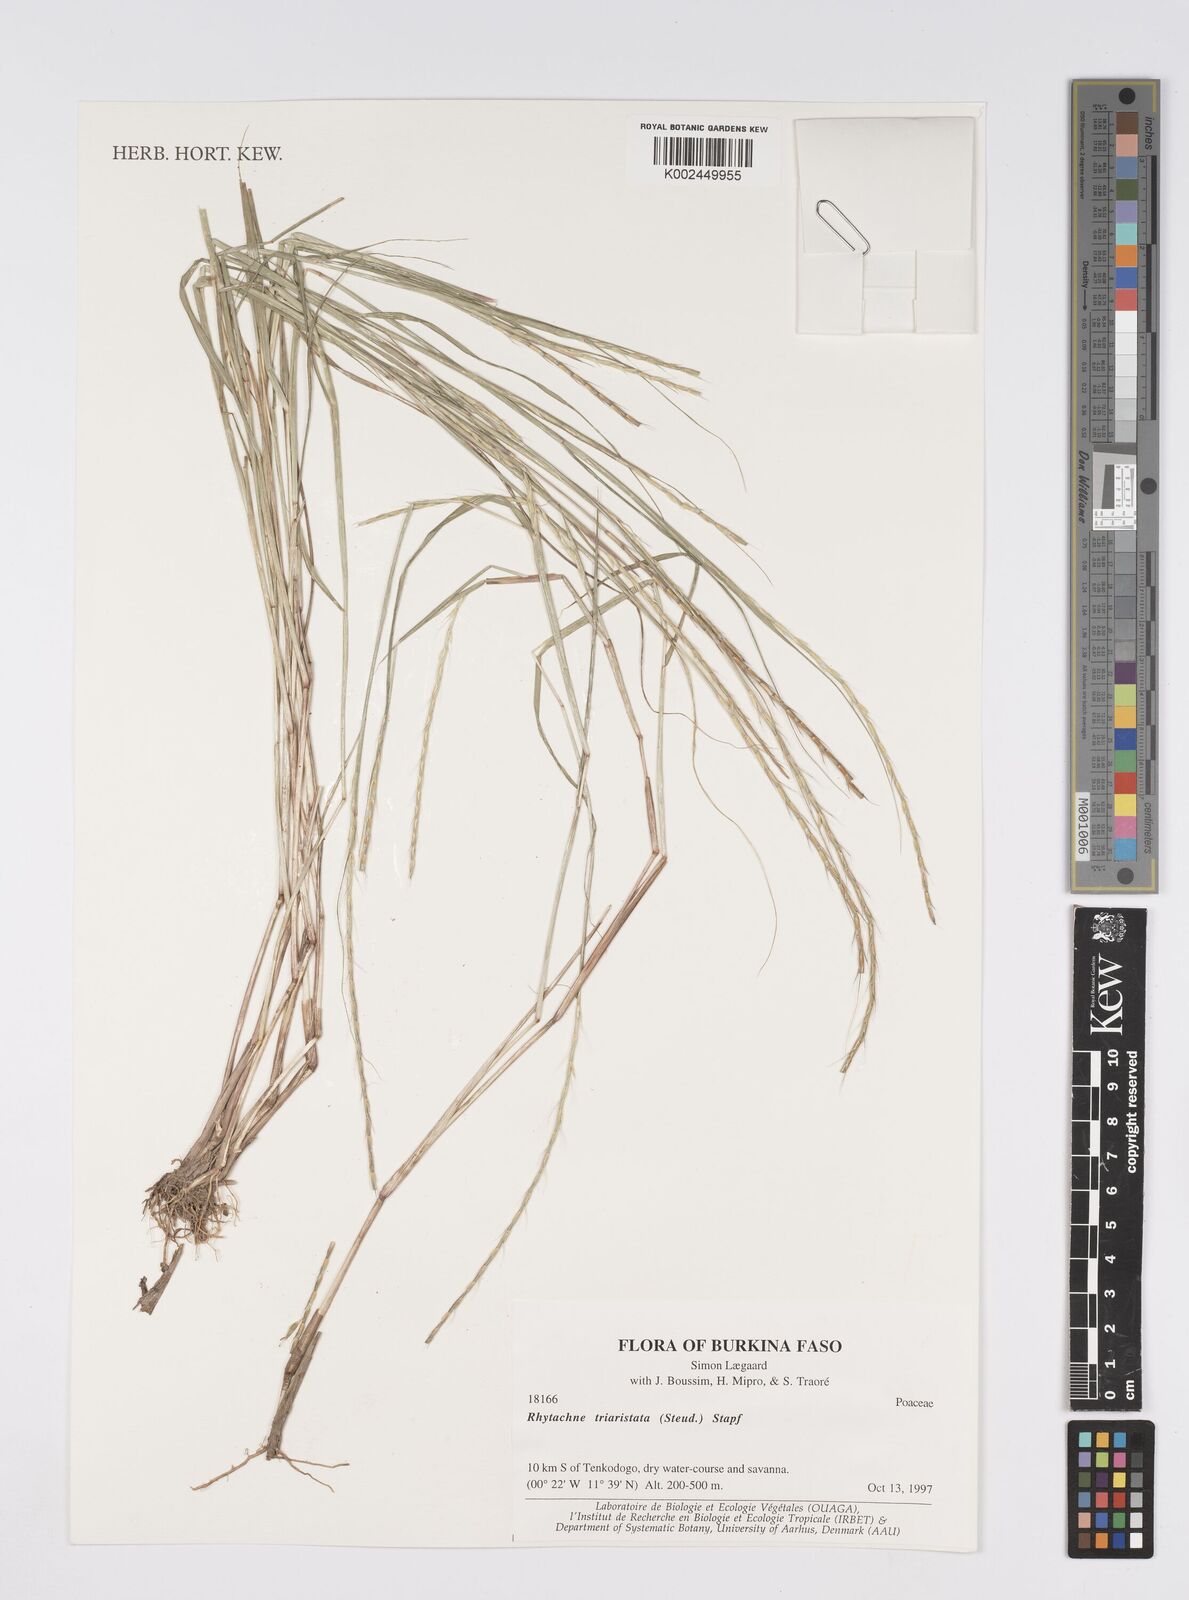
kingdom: Plantae
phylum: Tracheophyta
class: Liliopsida
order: Poales
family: Poaceae
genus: Rhytachne
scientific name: Rhytachne triaristata
